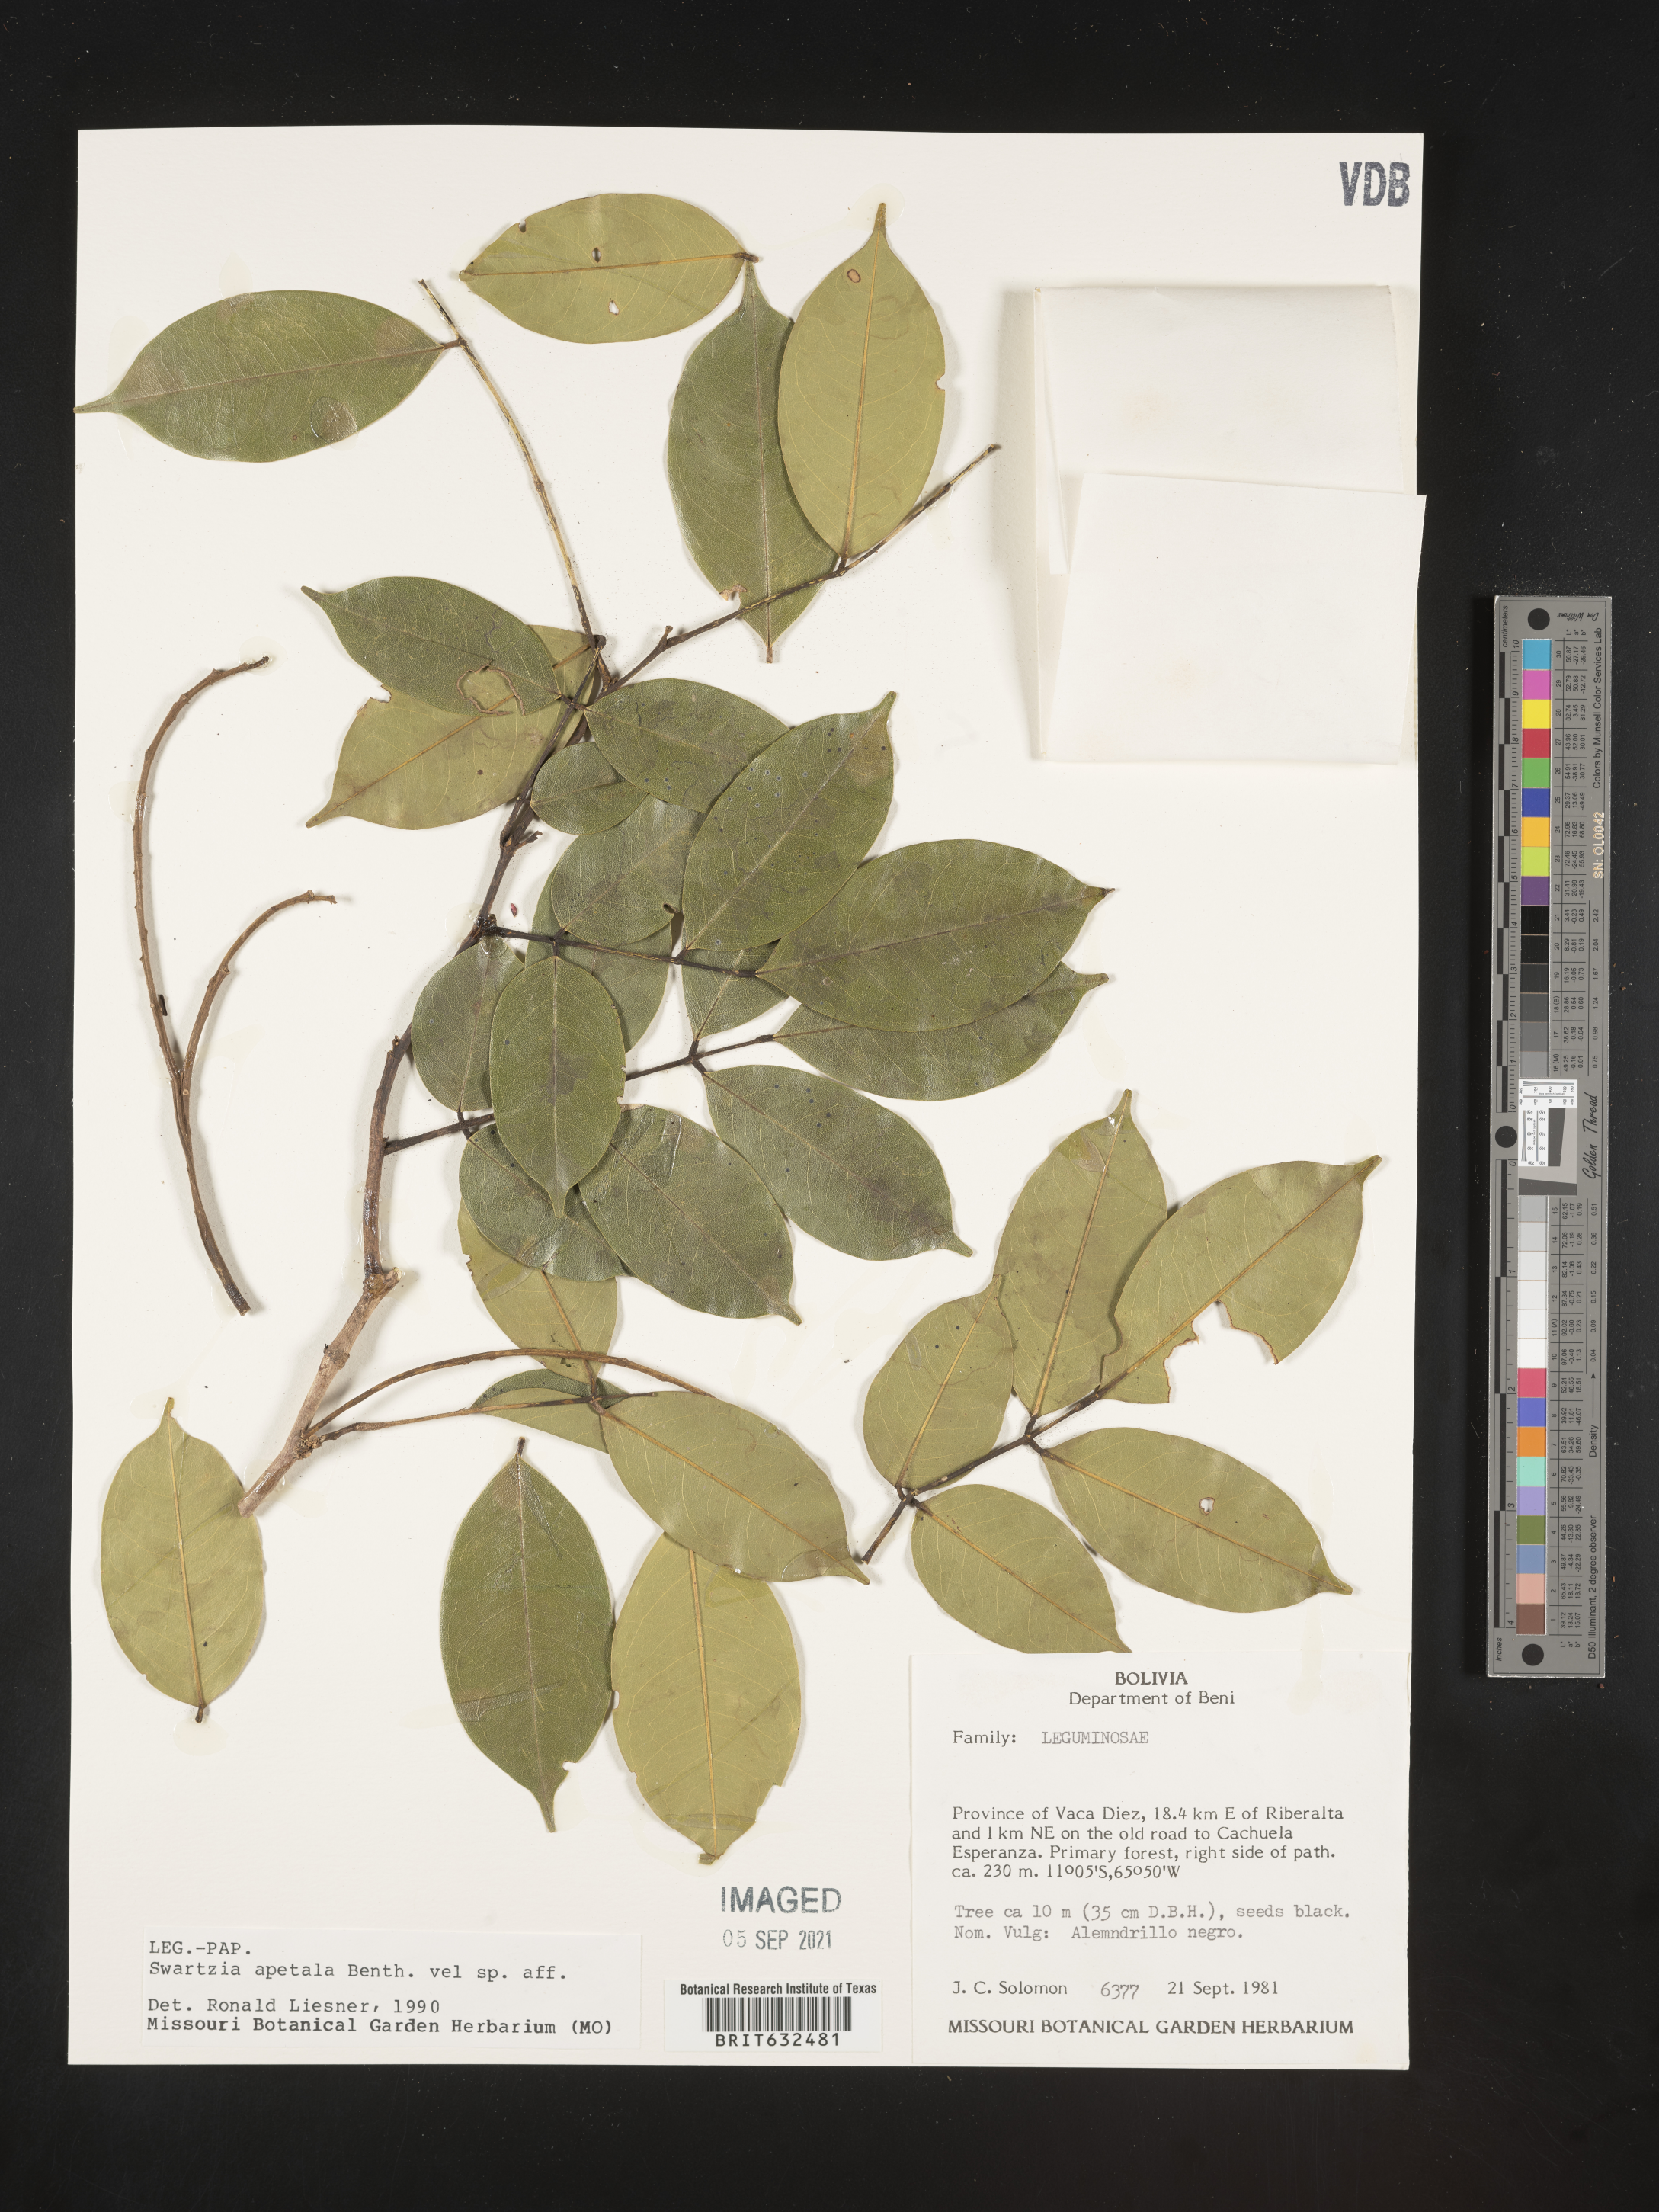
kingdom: Plantae
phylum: Tracheophyta
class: Magnoliopsida
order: Fabales
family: Fabaceae
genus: Swartzia
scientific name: Swartzia
